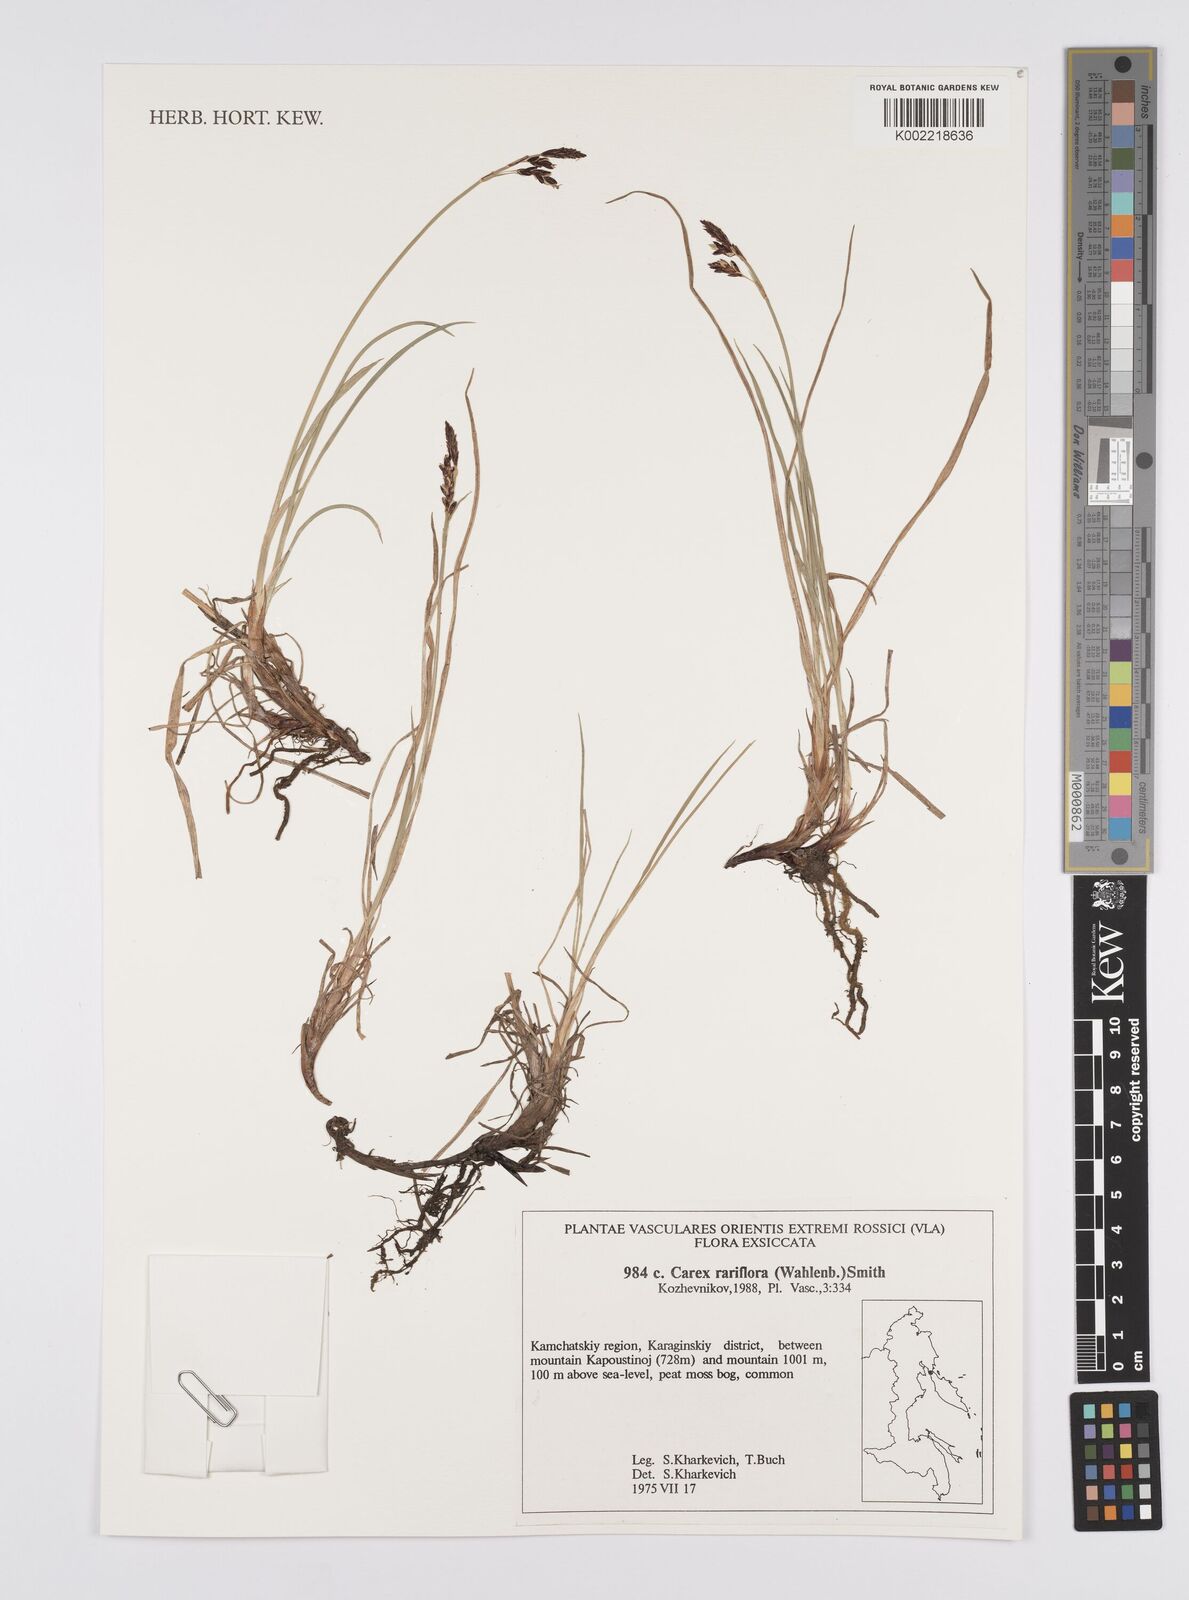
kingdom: Plantae
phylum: Tracheophyta
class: Liliopsida
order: Poales
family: Cyperaceae
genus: Carex
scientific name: Carex rariflora
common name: Loose-flowered alpine sedge
